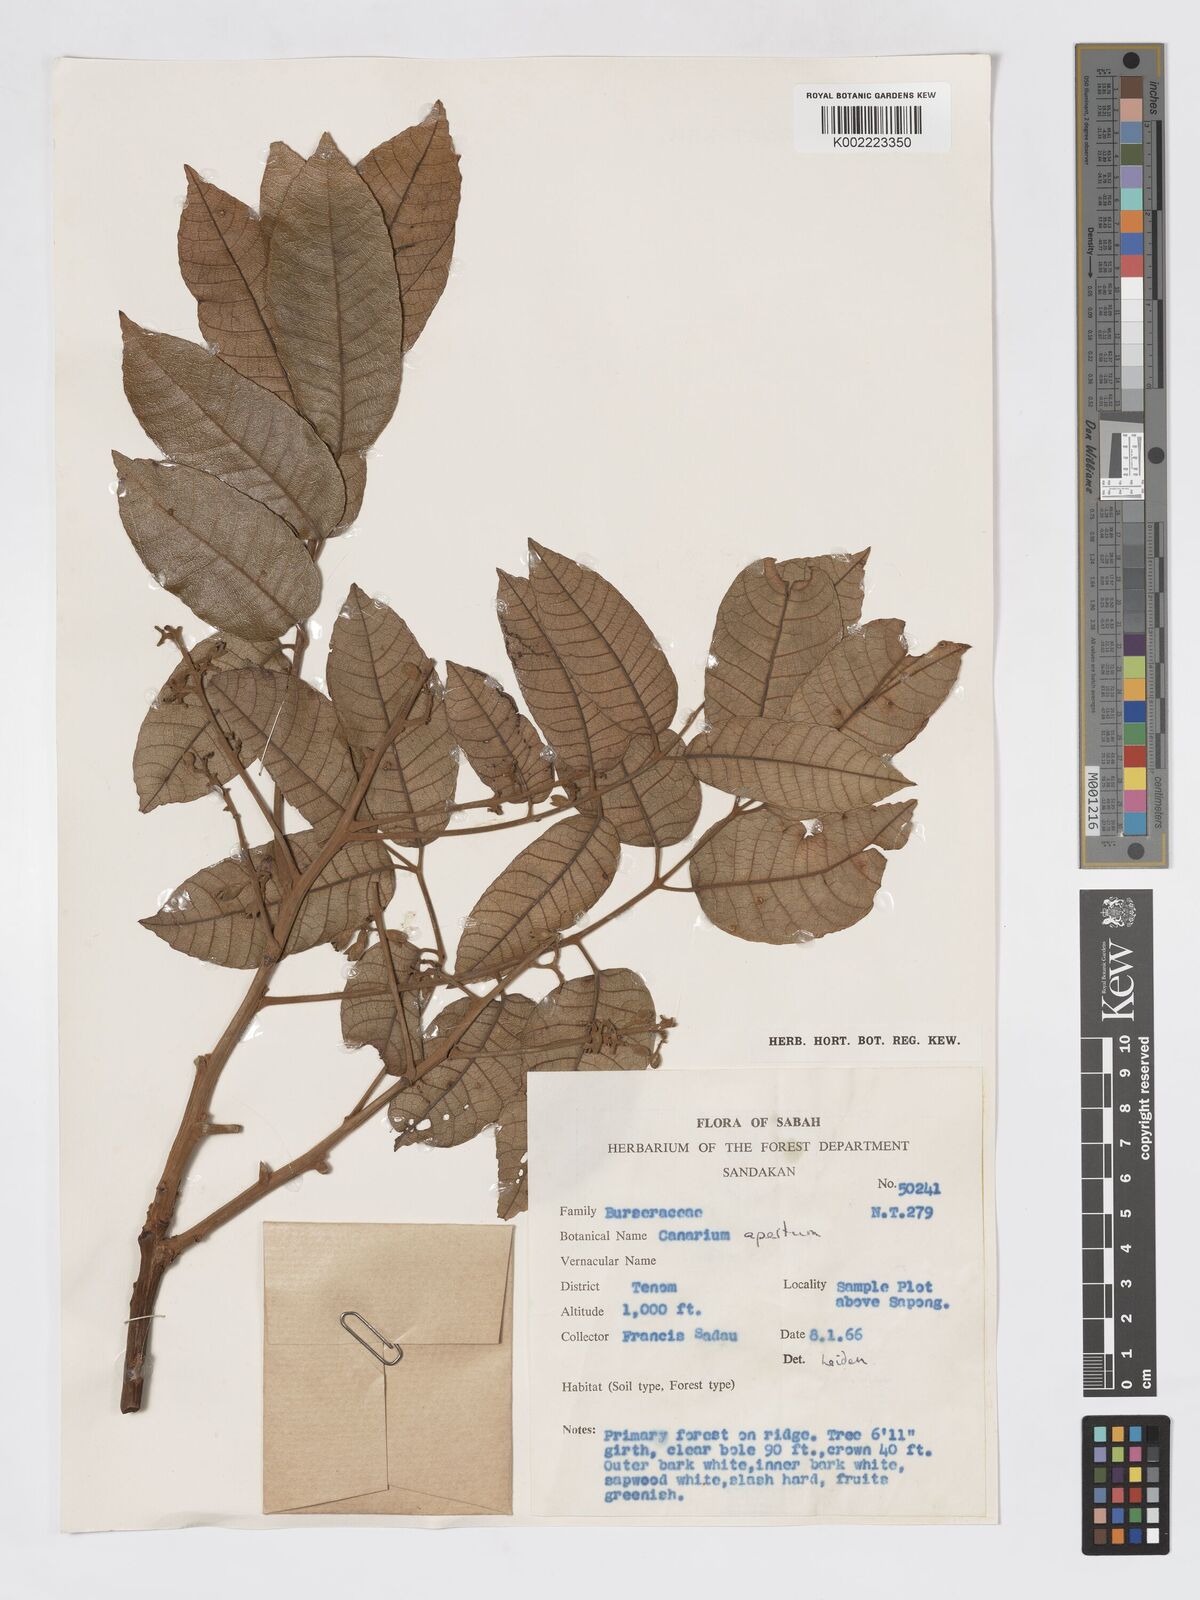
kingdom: Plantae
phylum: Tracheophyta
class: Magnoliopsida
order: Sapindales
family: Burseraceae
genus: Canarium
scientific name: Canarium apertum
